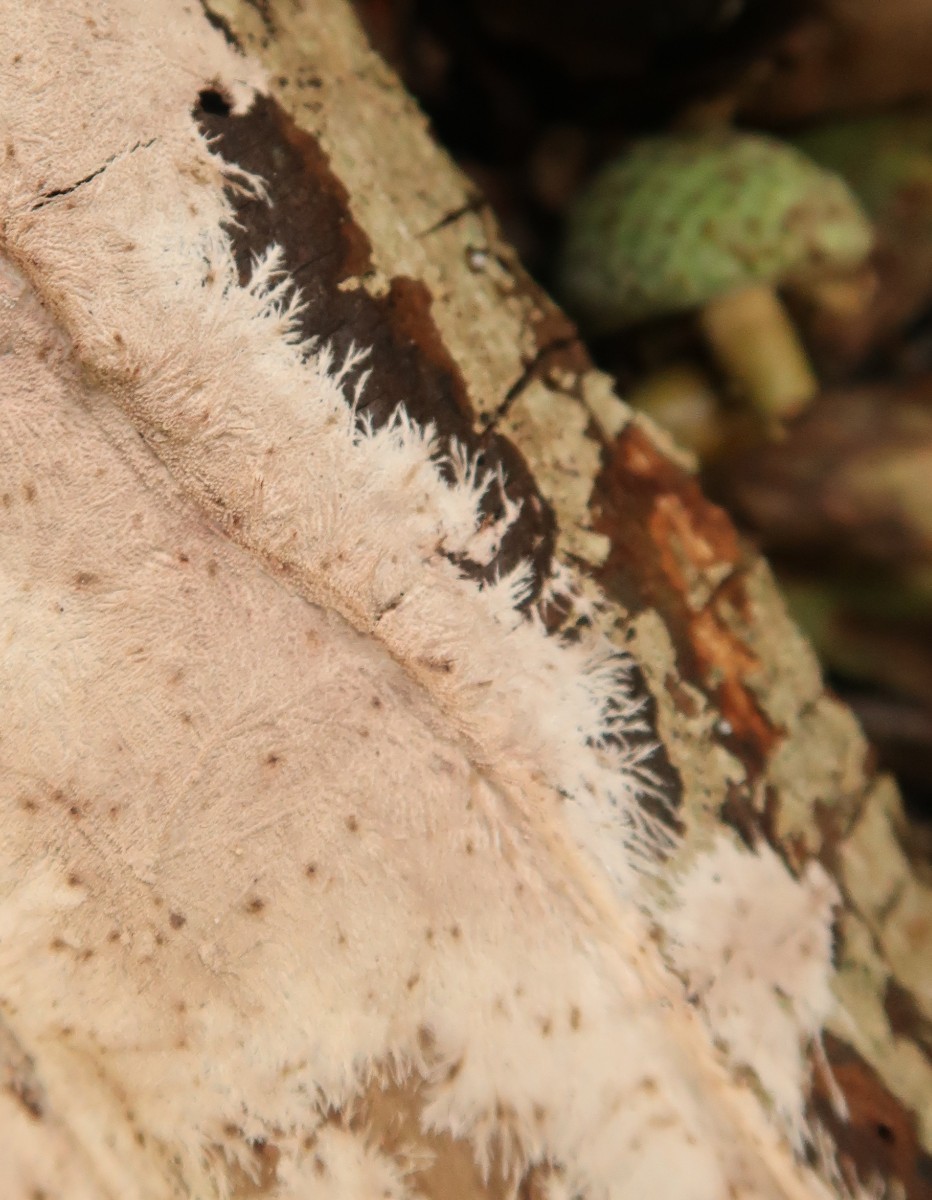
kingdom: Fungi
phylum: Basidiomycota
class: Agaricomycetes
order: Polyporales
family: Steccherinaceae
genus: Steccherinum
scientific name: Steccherinum fimbriatum
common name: trådet skønpig
